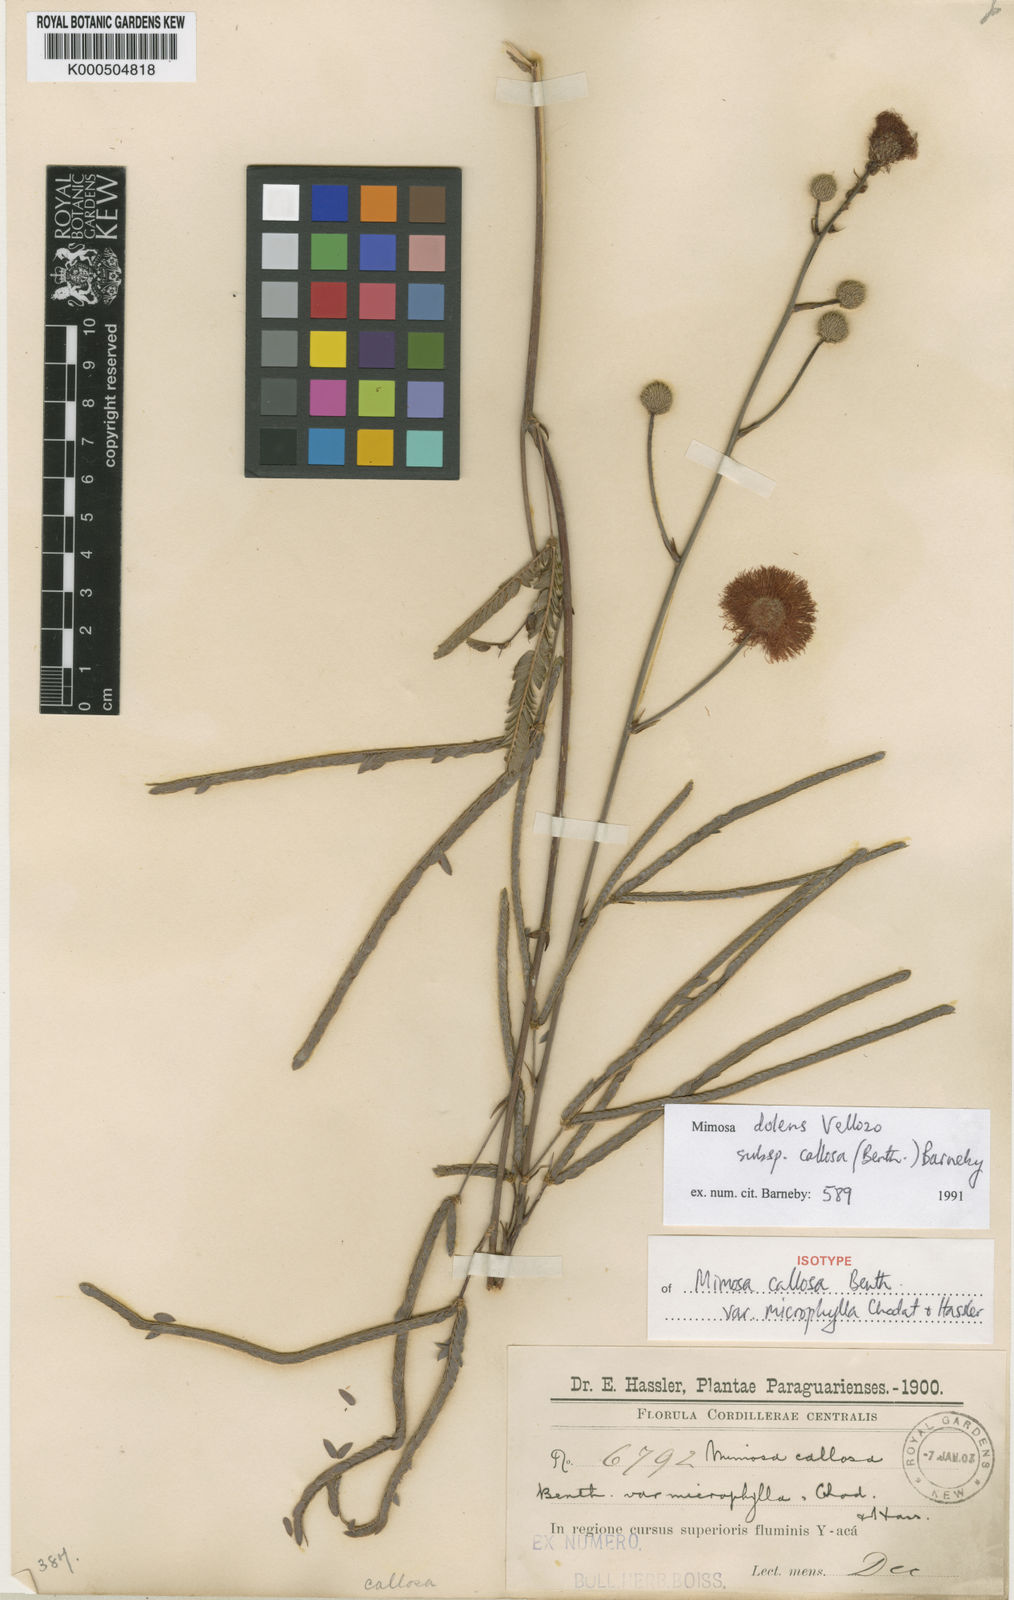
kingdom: Plantae
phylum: Tracheophyta
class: Magnoliopsida
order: Fabales
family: Fabaceae
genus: Mimosa
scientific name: Mimosa dolens
